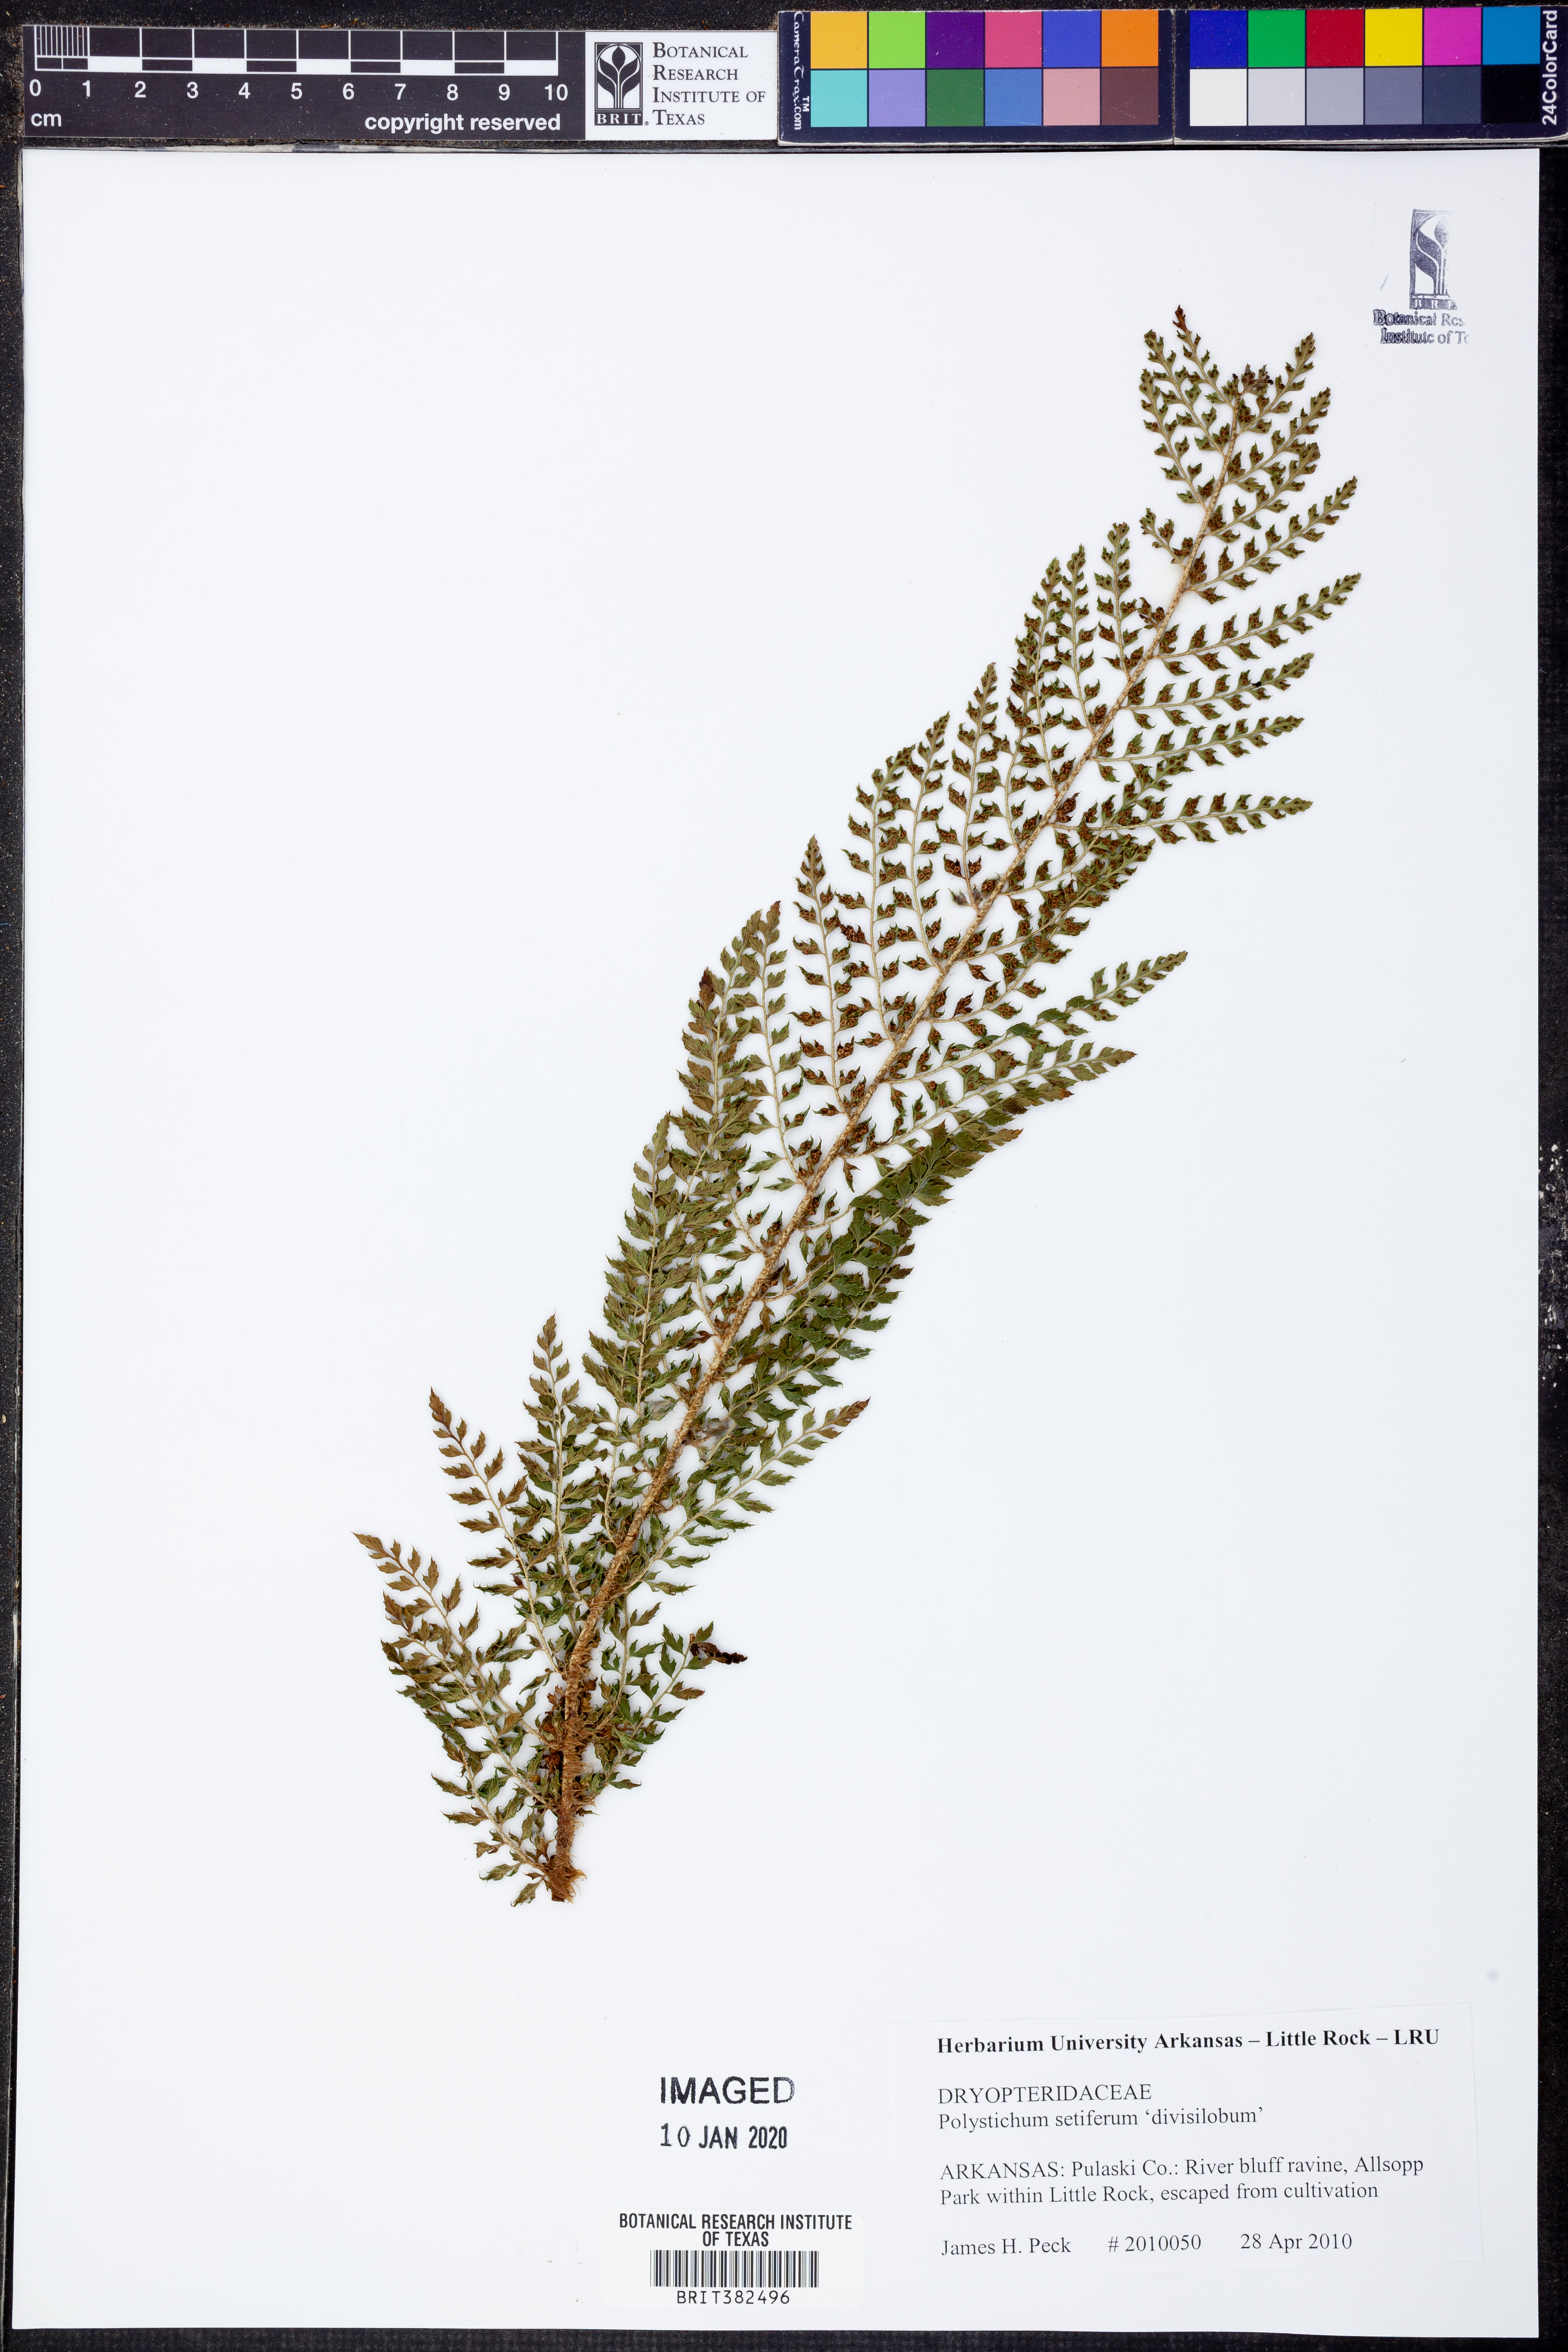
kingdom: Plantae
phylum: Tracheophyta
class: Polypodiopsida
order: Polypodiales
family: Dryopteridaceae
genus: Polystichum
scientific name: Polystichum setiferum
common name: Soft shield-fern
